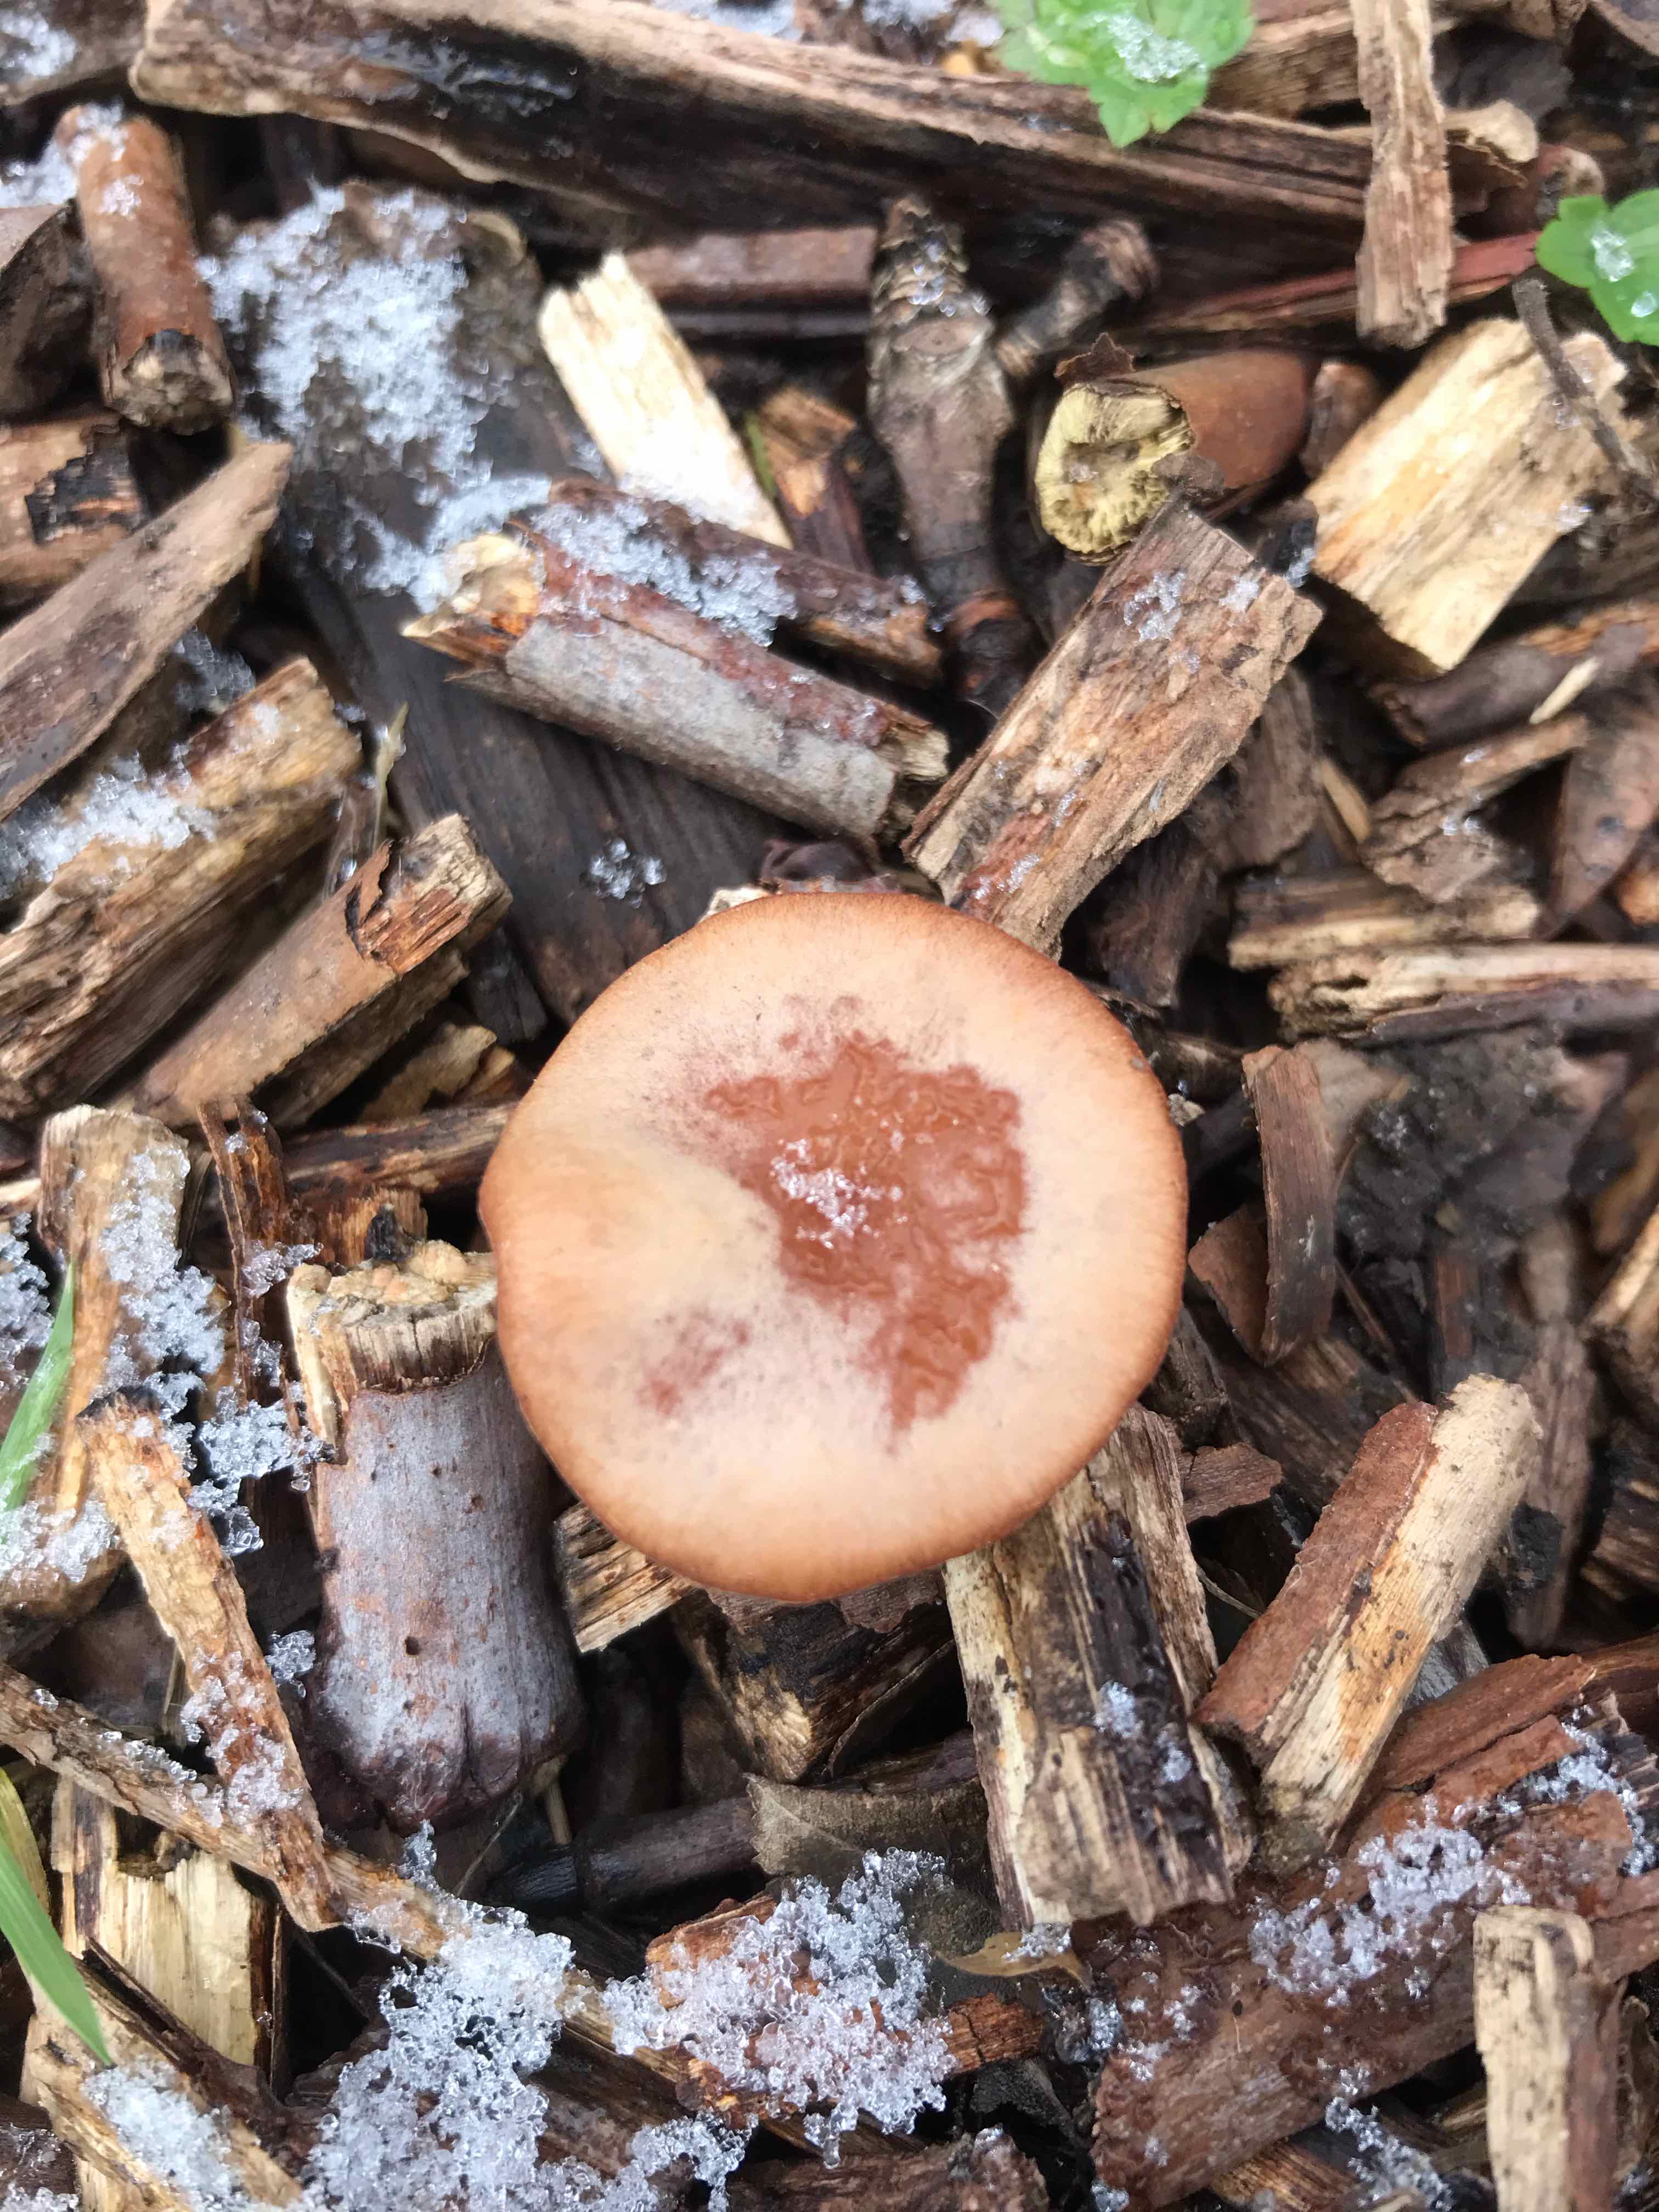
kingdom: Fungi
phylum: Basidiomycota
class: Agaricomycetes
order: Agaricales
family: Tubariaceae
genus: Tubaria
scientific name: Tubaria furfuracea
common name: kliddet fnughat
